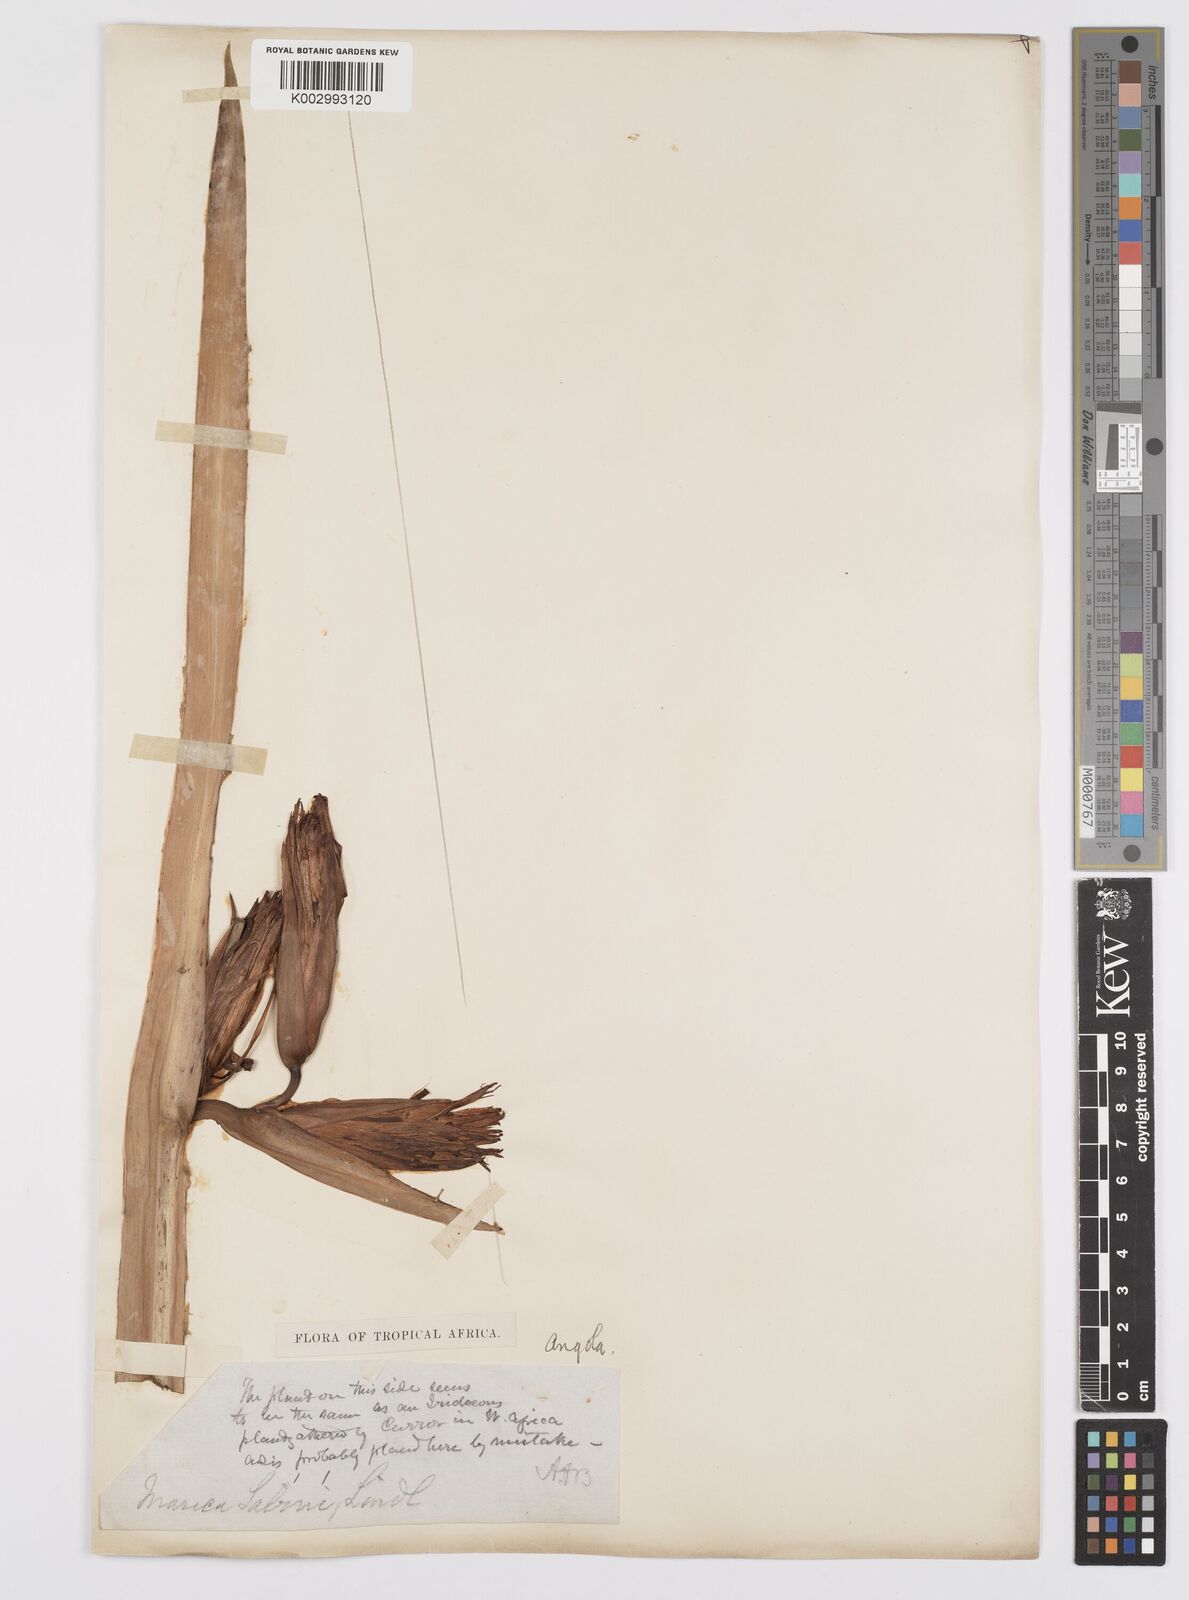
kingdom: Plantae
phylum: Tracheophyta
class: Liliopsida
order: Asparagales
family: Iridaceae
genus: Trimezia
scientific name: Trimezia sabini
